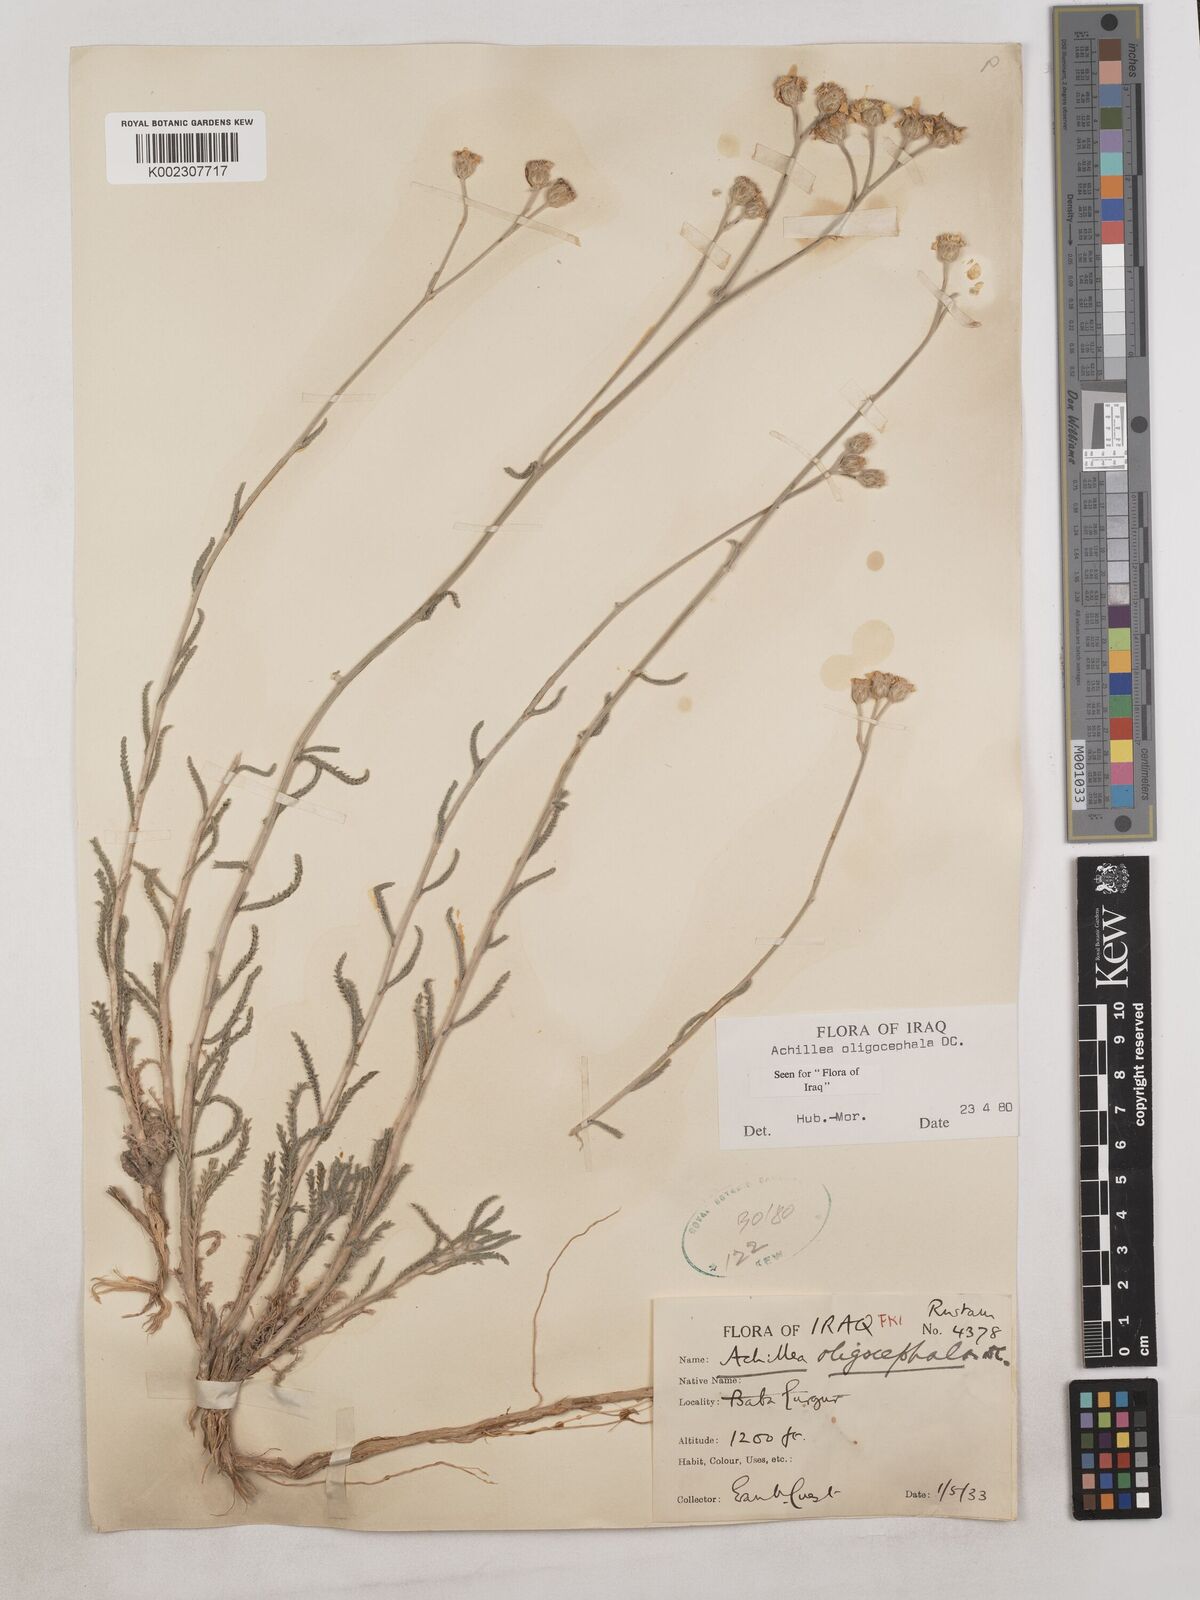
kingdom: Plantae
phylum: Tracheophyta
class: Magnoliopsida
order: Asterales
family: Asteraceae
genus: Achillea
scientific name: Achillea oligocephala
